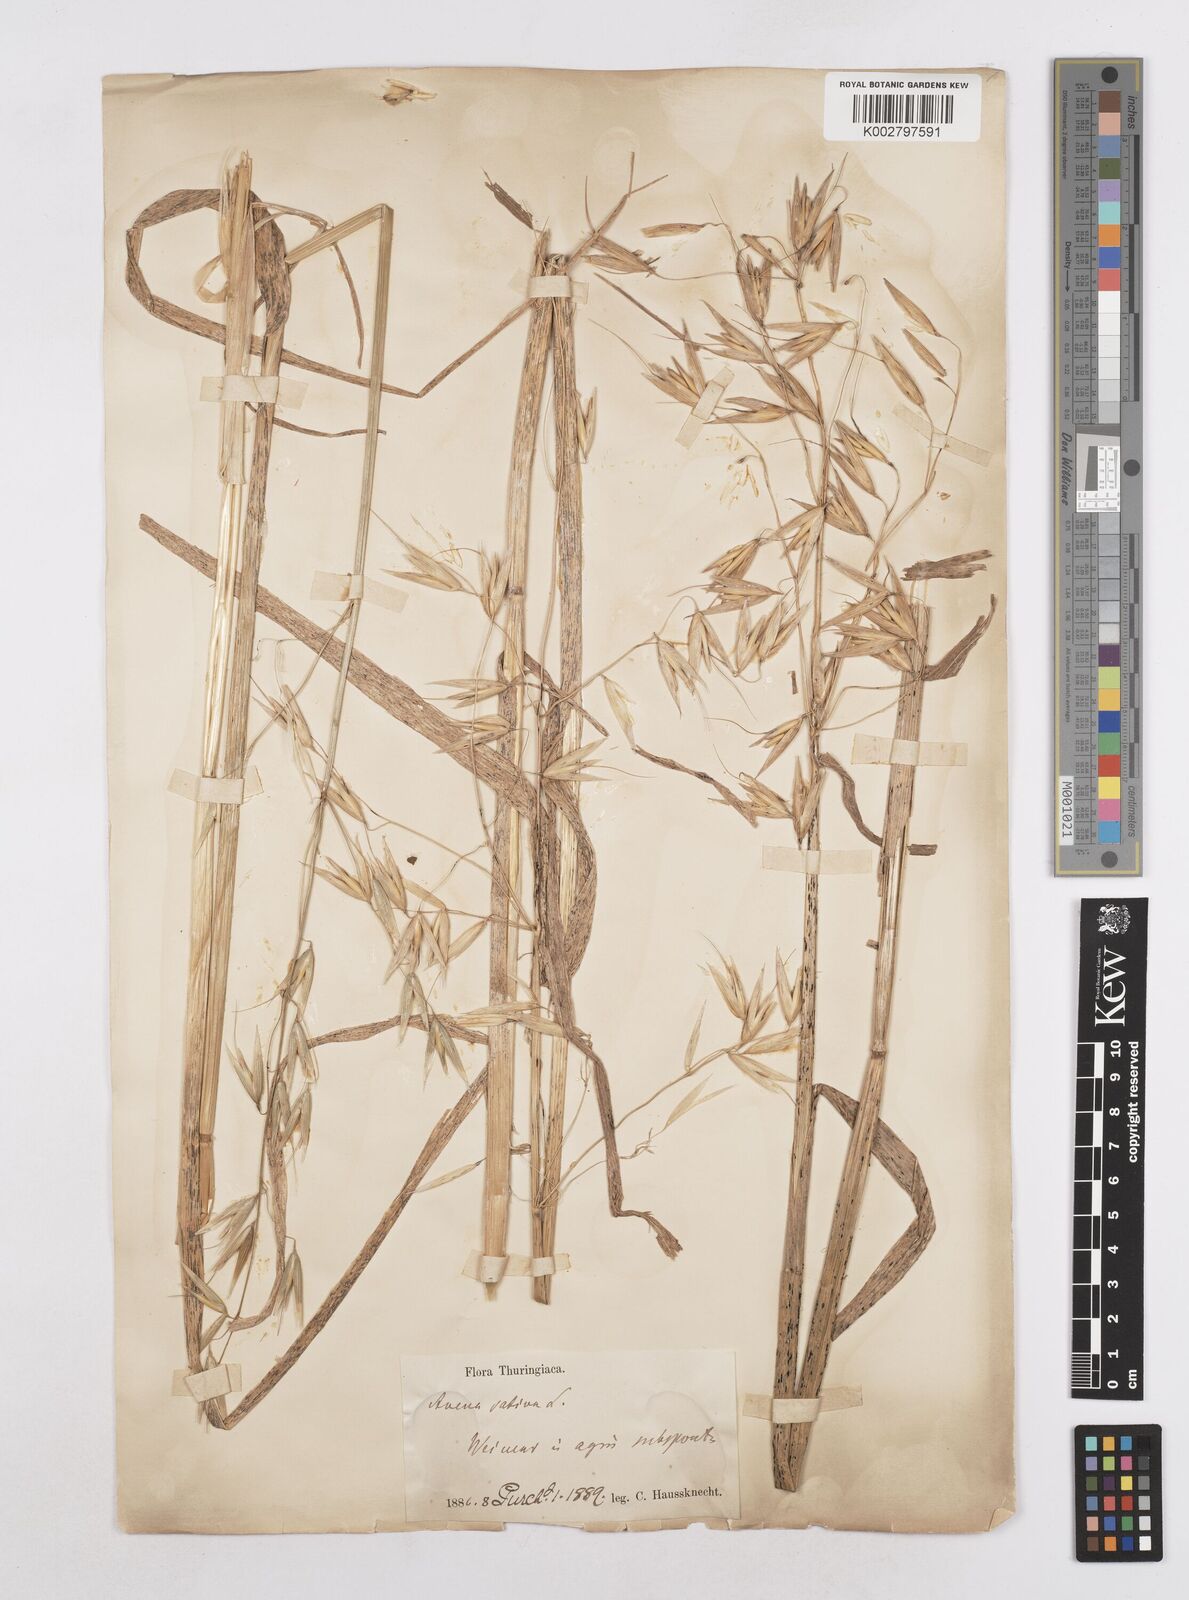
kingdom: Plantae
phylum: Tracheophyta
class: Liliopsida
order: Poales
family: Poaceae
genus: Avena
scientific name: Avena sativa
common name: Oat
